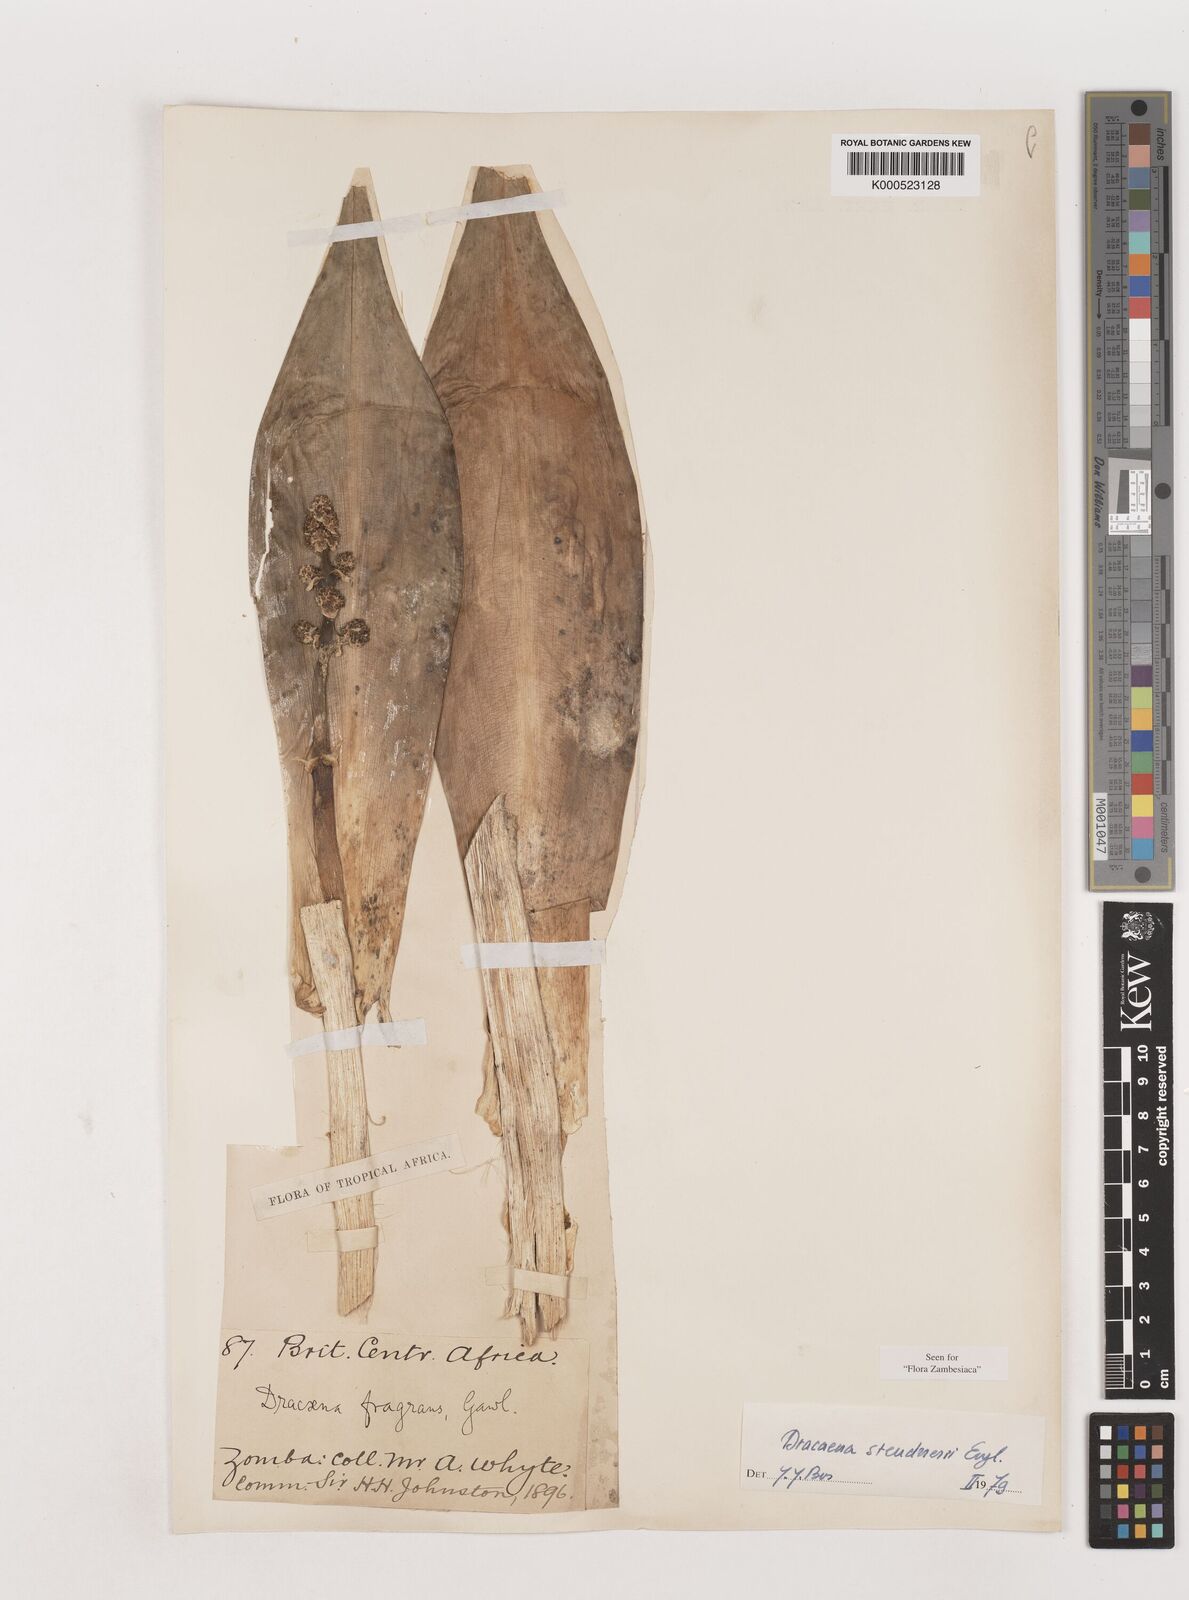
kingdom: Plantae
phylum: Tracheophyta
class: Liliopsida
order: Asparagales
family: Asparagaceae
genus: Dracaena
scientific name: Dracaena steudneri
